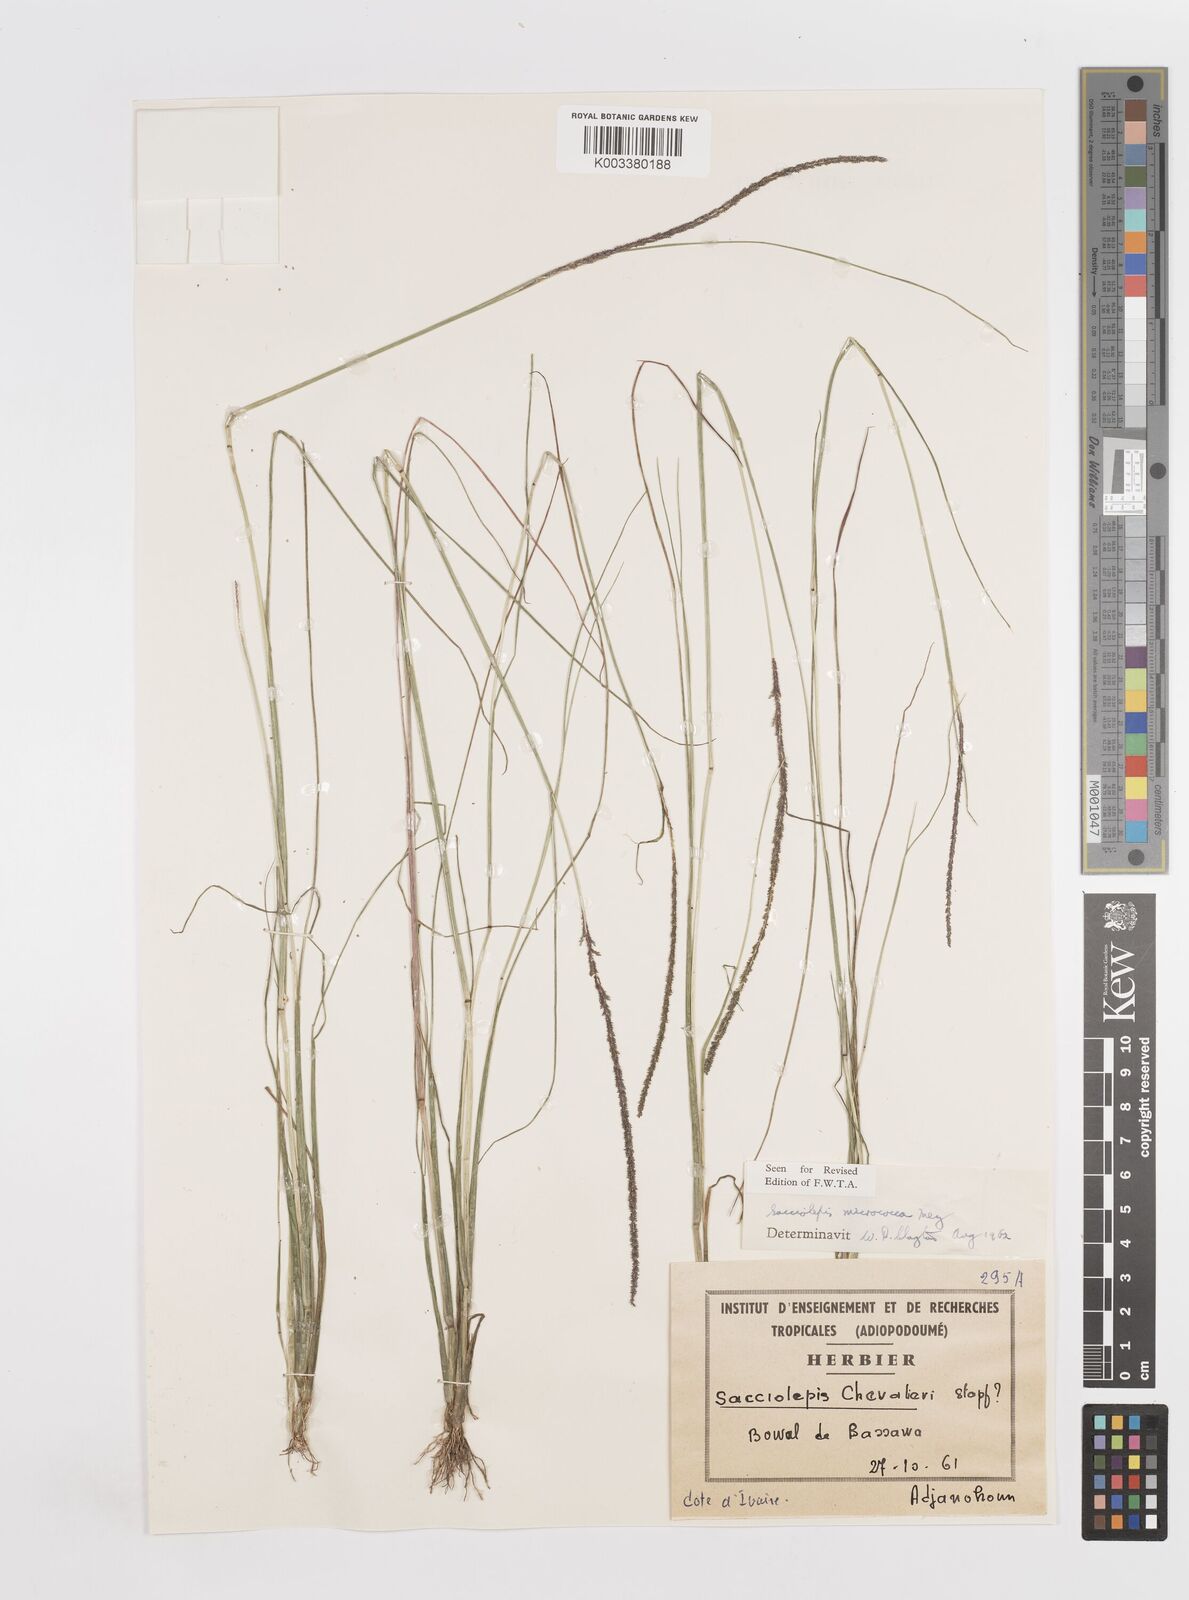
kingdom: Plantae
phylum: Tracheophyta
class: Liliopsida
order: Poales
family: Poaceae
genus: Sacciolepis
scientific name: Sacciolepis micrococca
